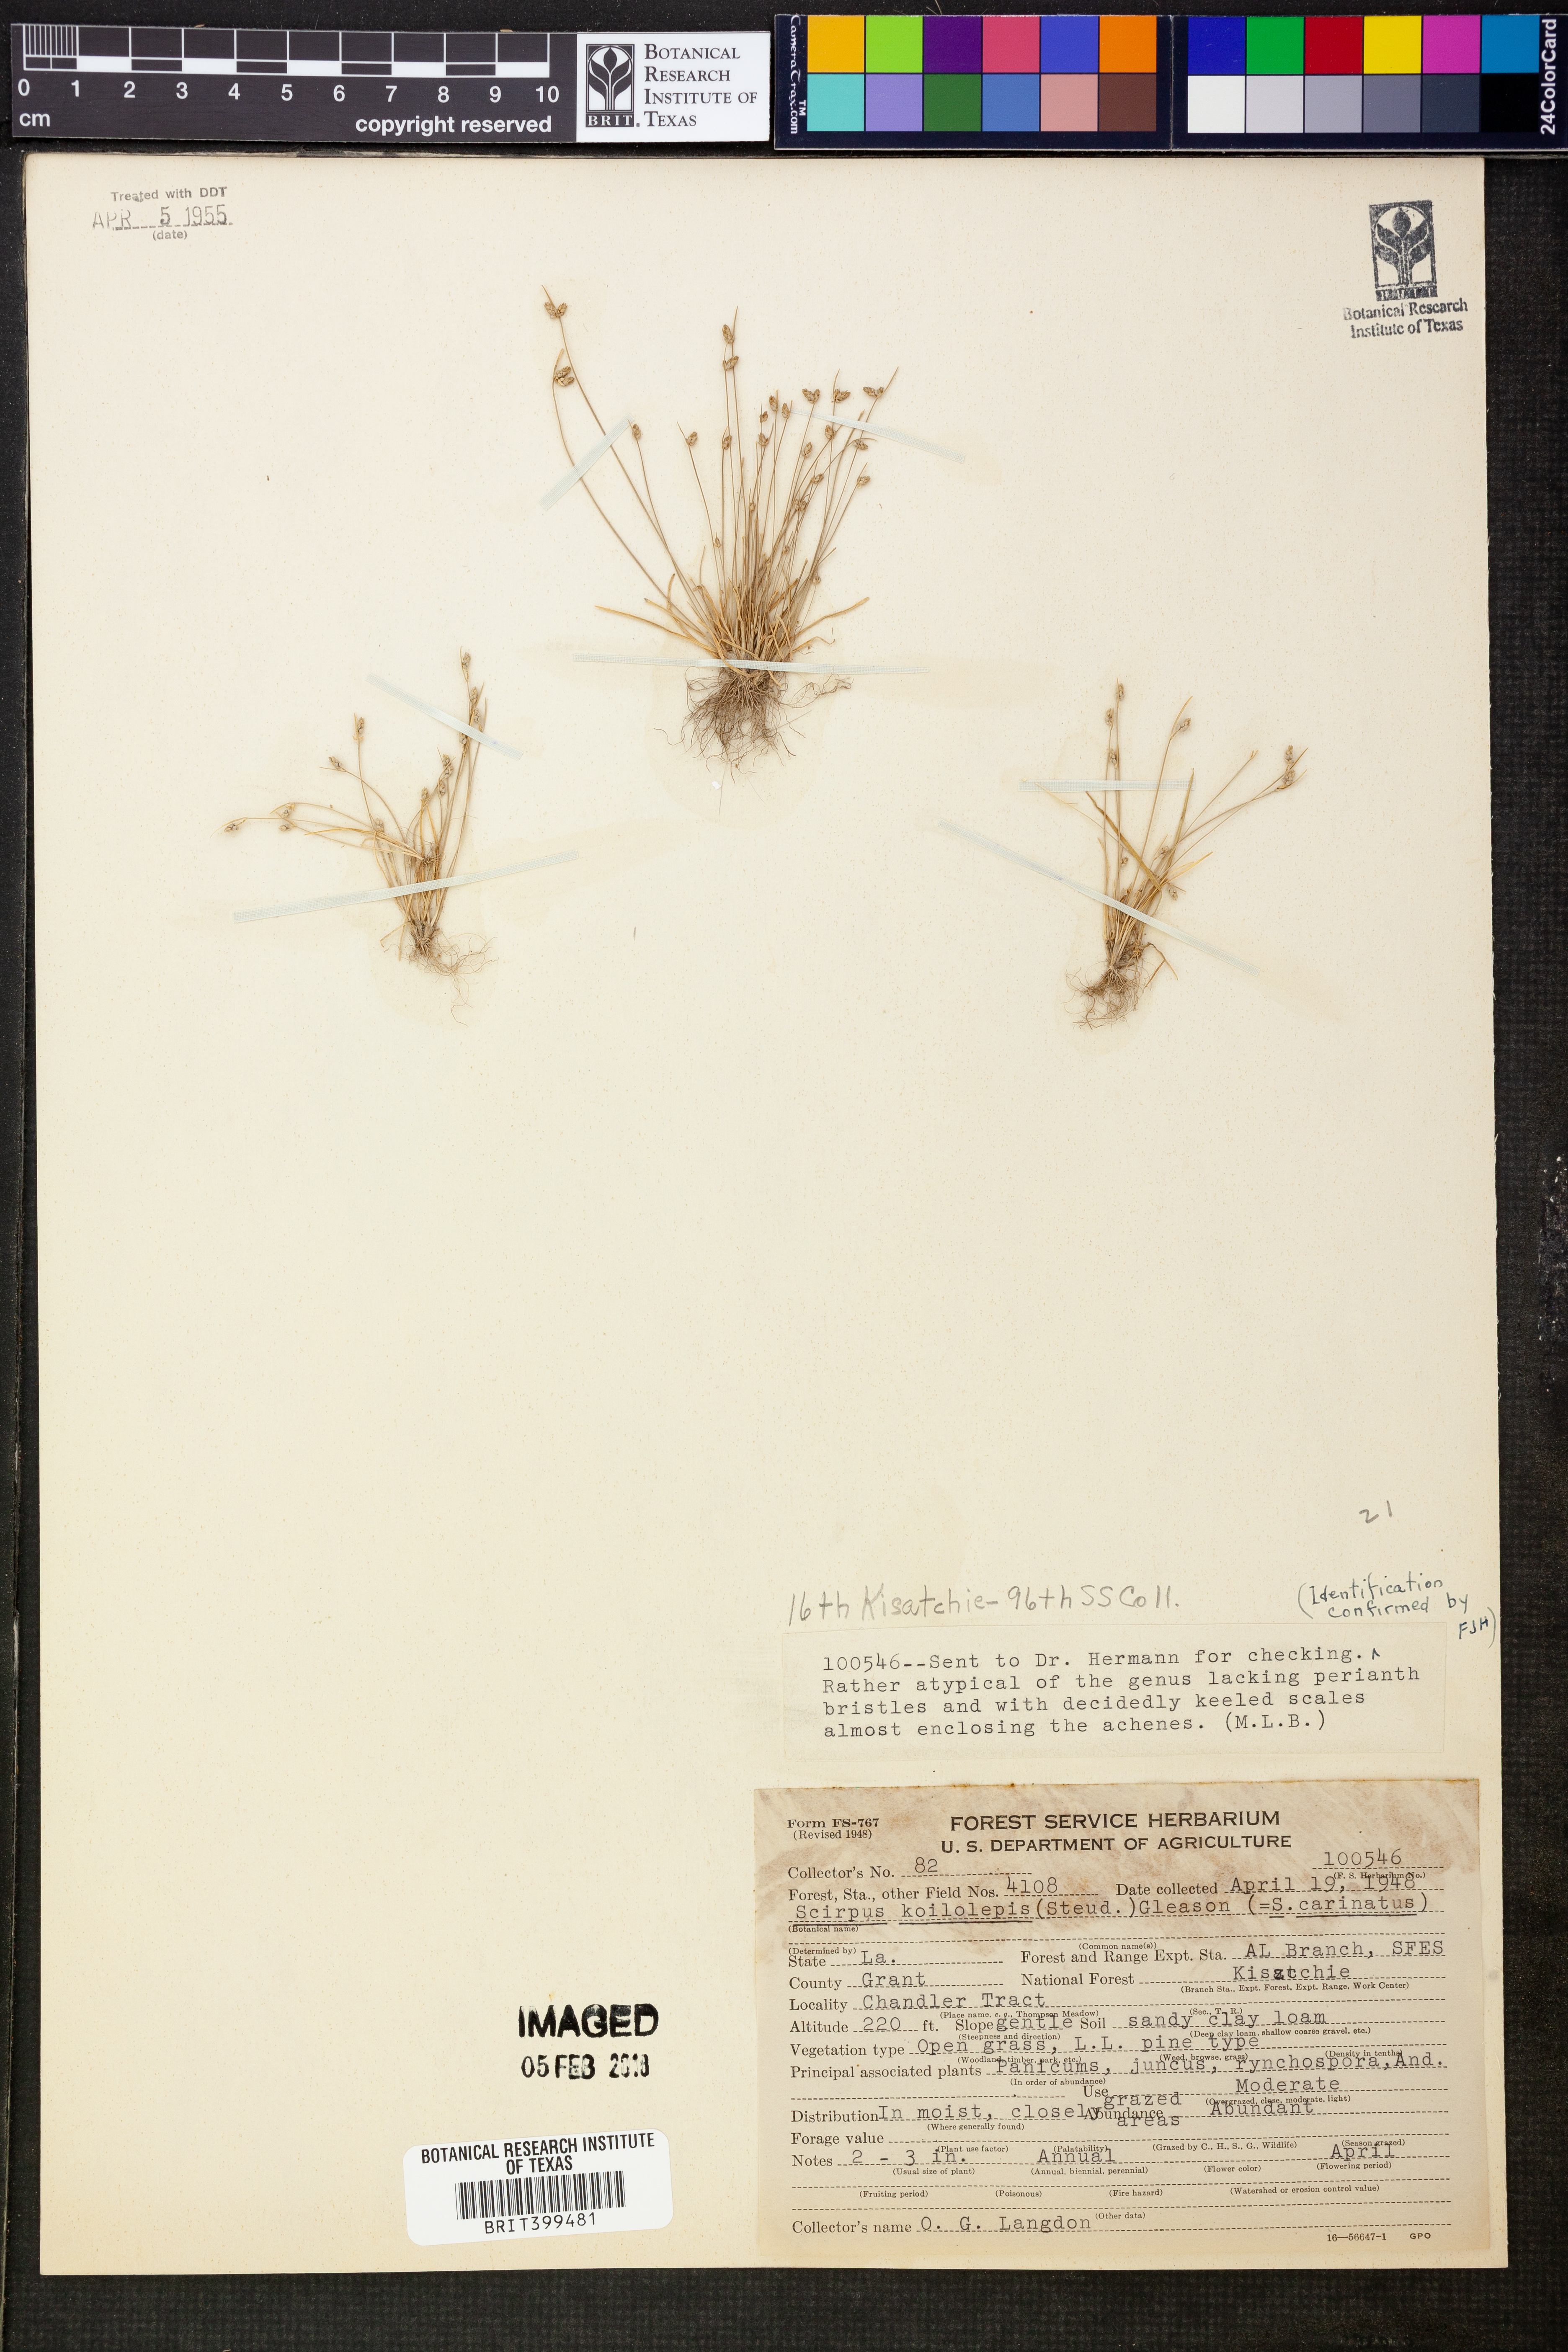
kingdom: Plantae
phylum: Tracheophyta
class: Liliopsida
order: Poales
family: Cyperaceae
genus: Isolepis
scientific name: Isolepis carinata
